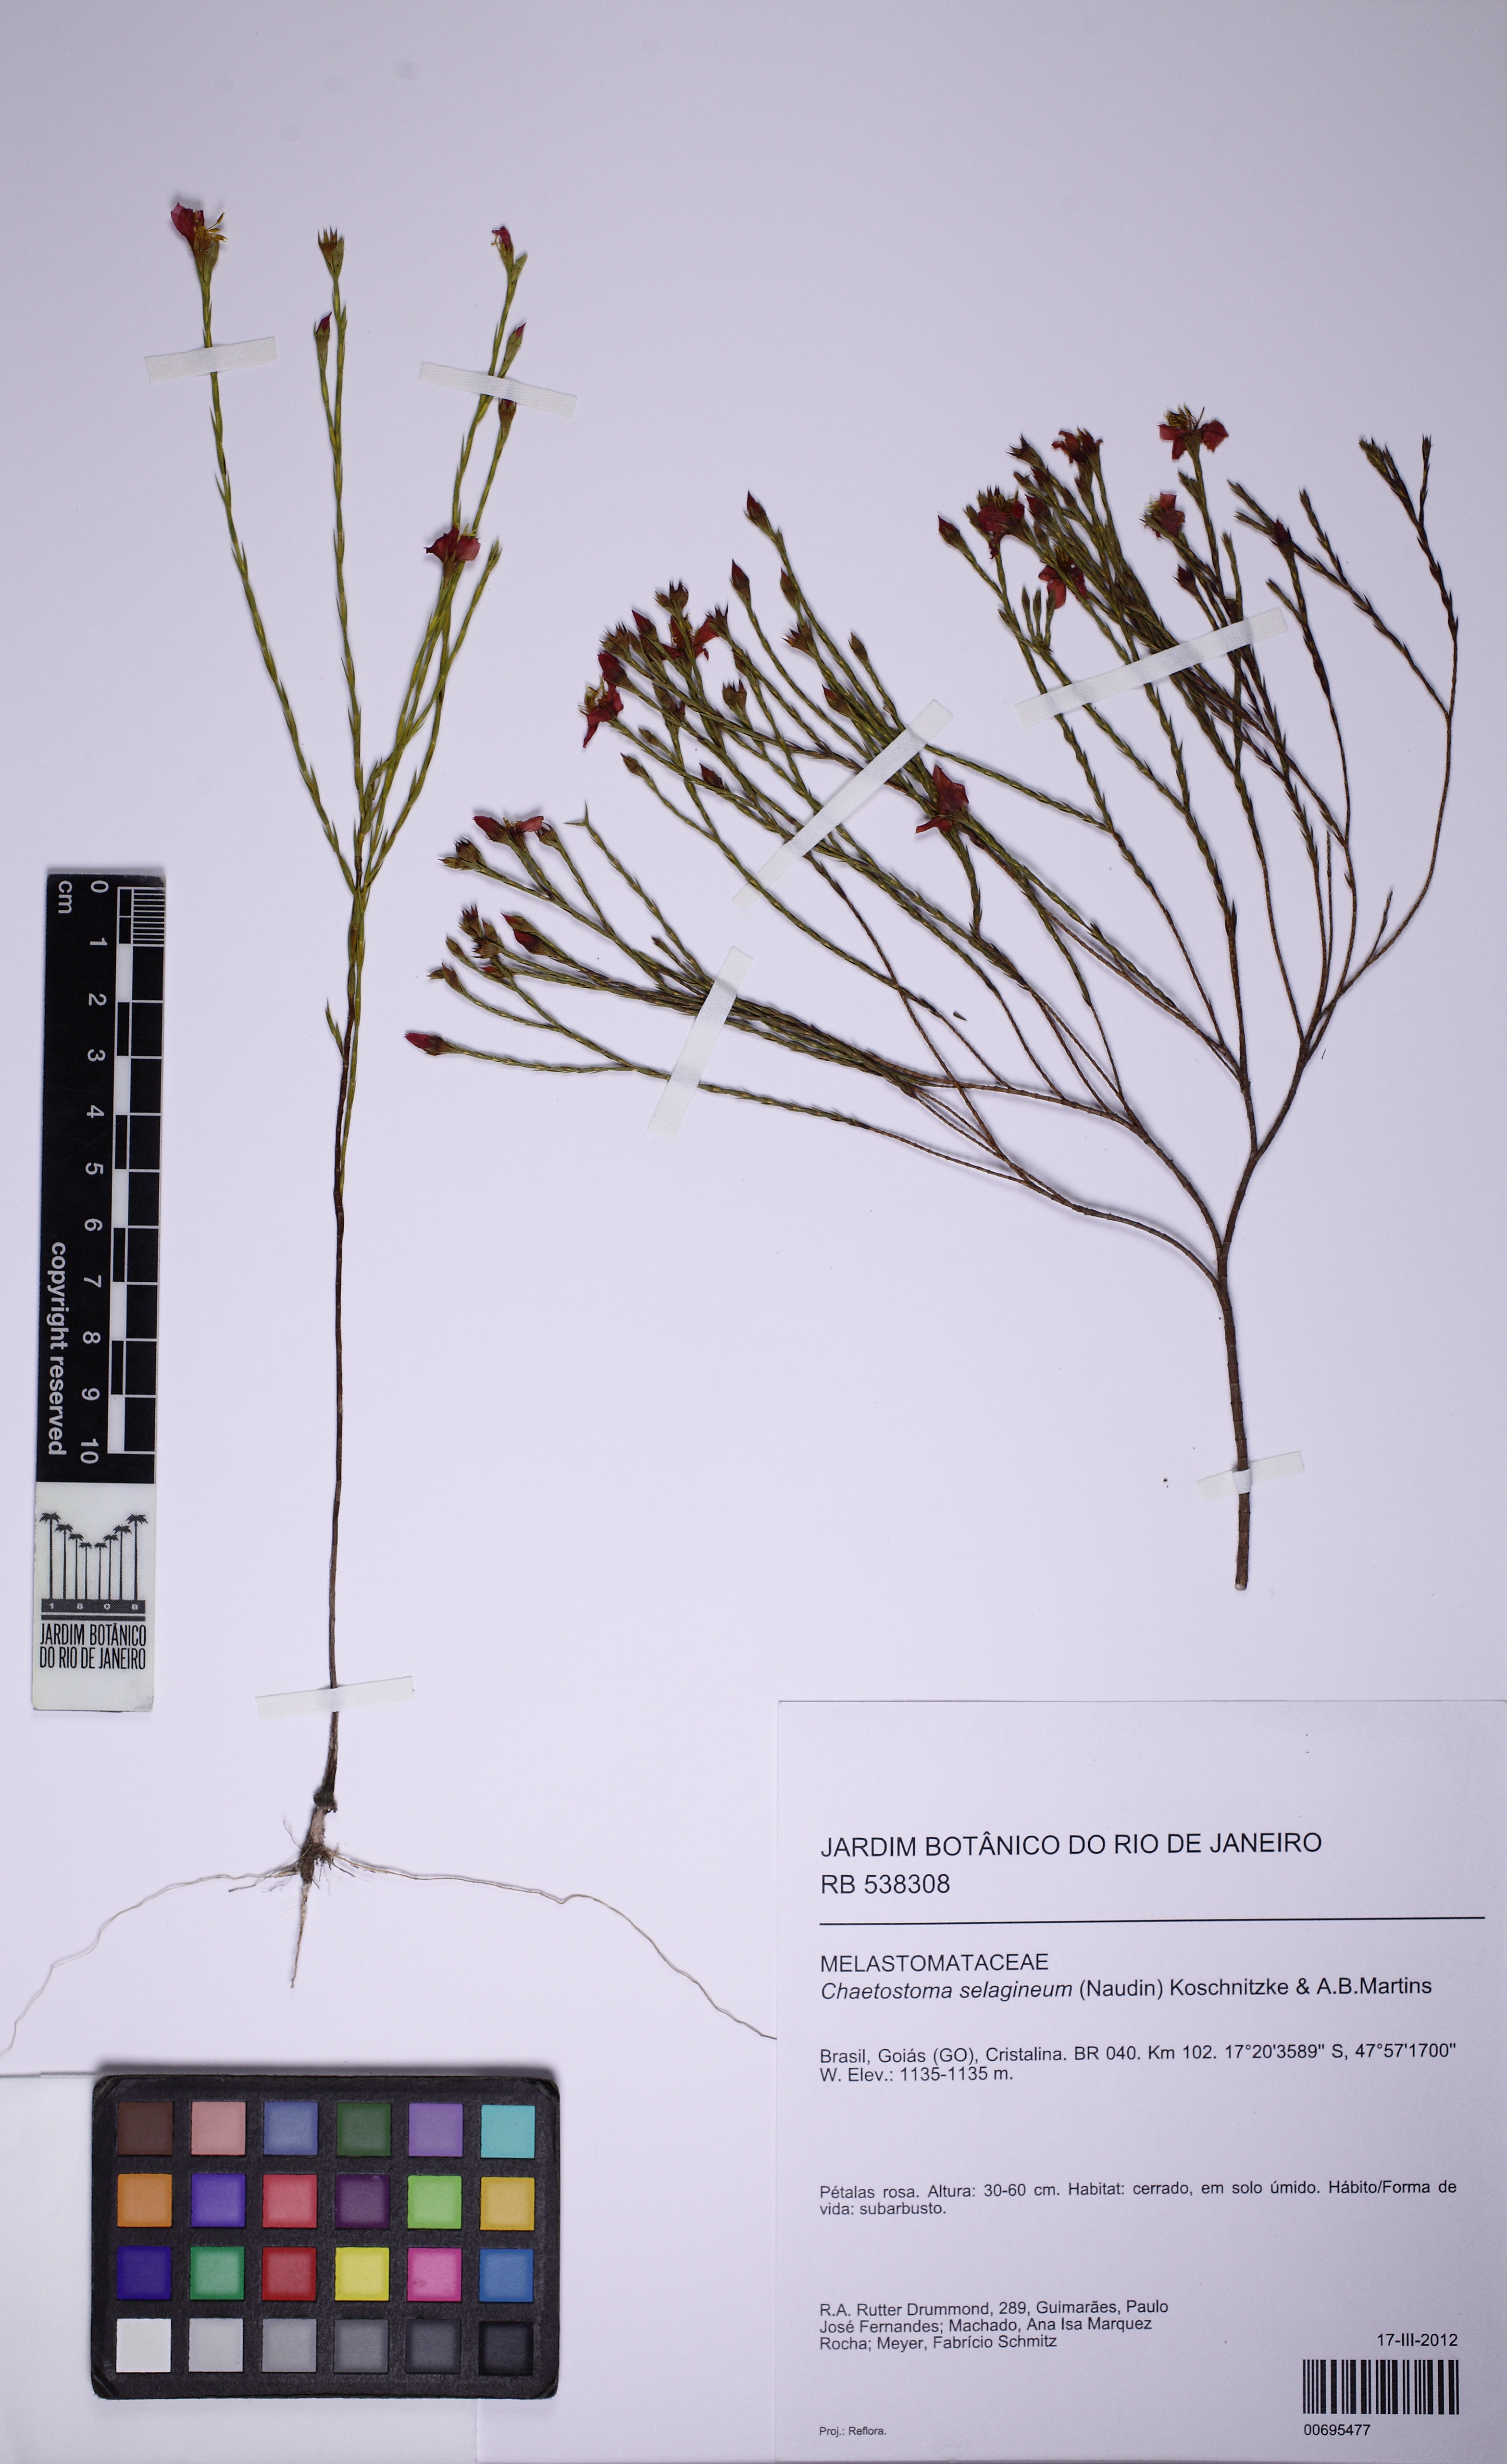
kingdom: Plantae
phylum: Tracheophyta
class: Magnoliopsida
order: Myrtales
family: Melastomataceae
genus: Microlicia
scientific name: Microlicia selaginea
